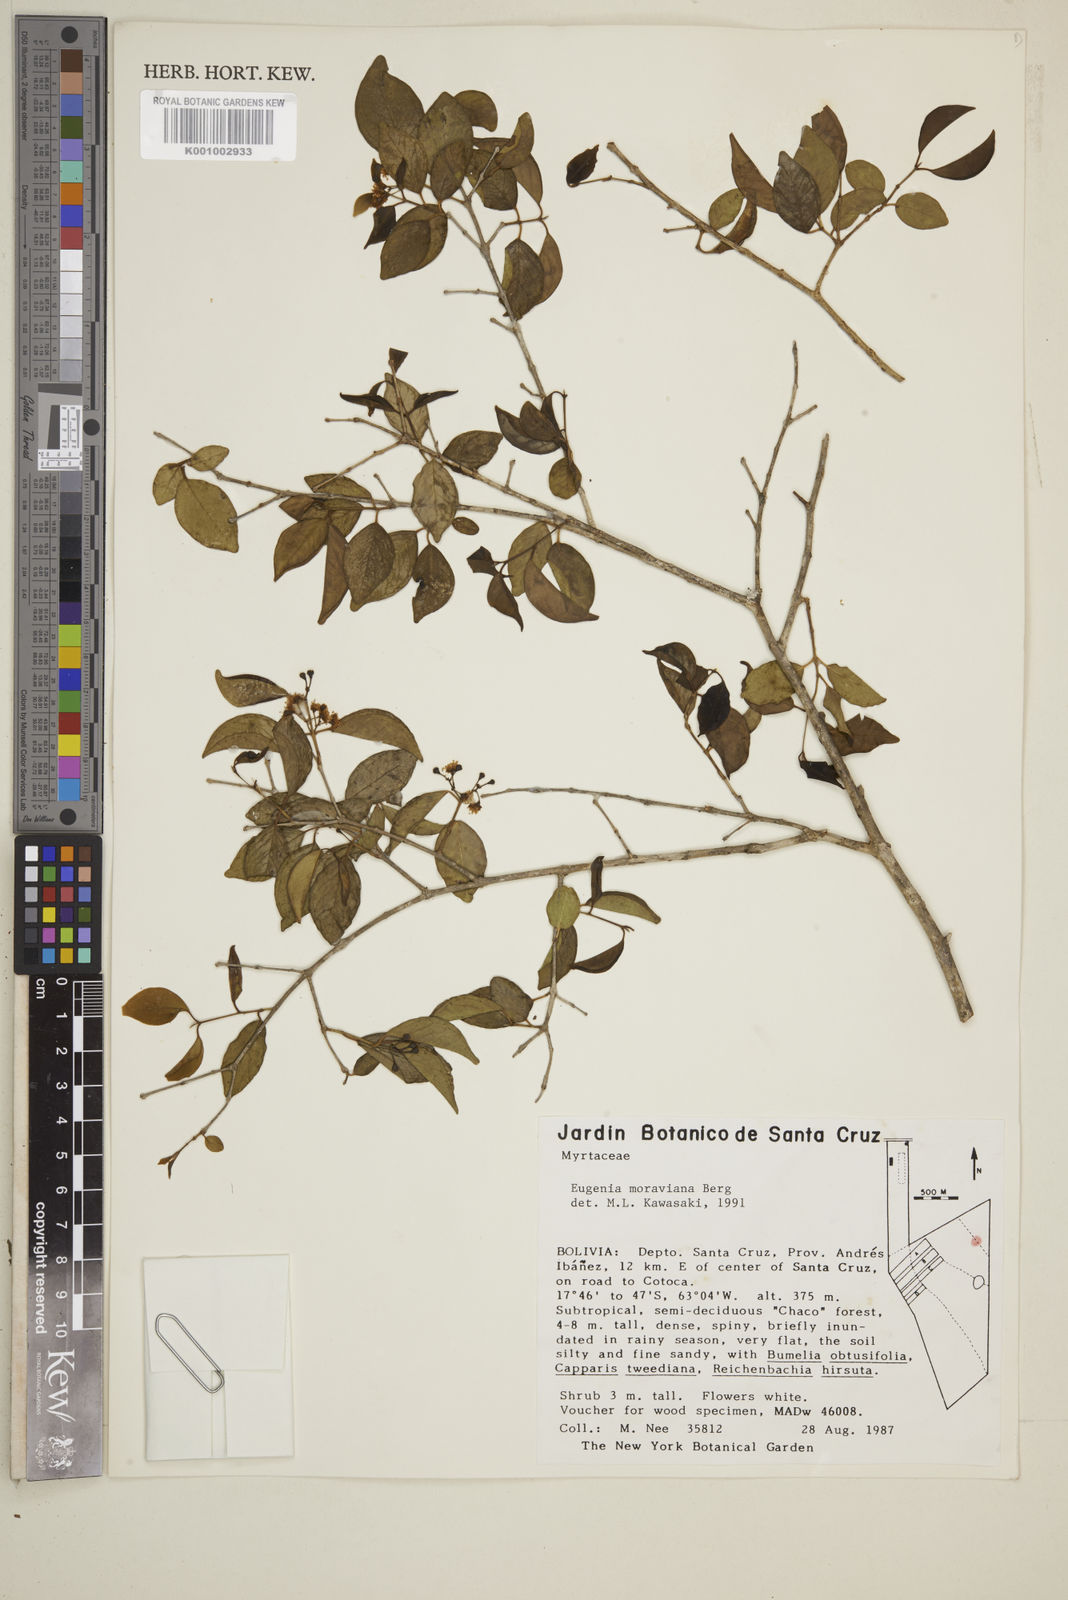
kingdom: Plantae
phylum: Tracheophyta
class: Magnoliopsida
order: Myrtales
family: Myrtaceae
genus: Eugenia
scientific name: Eugenia moraviana
